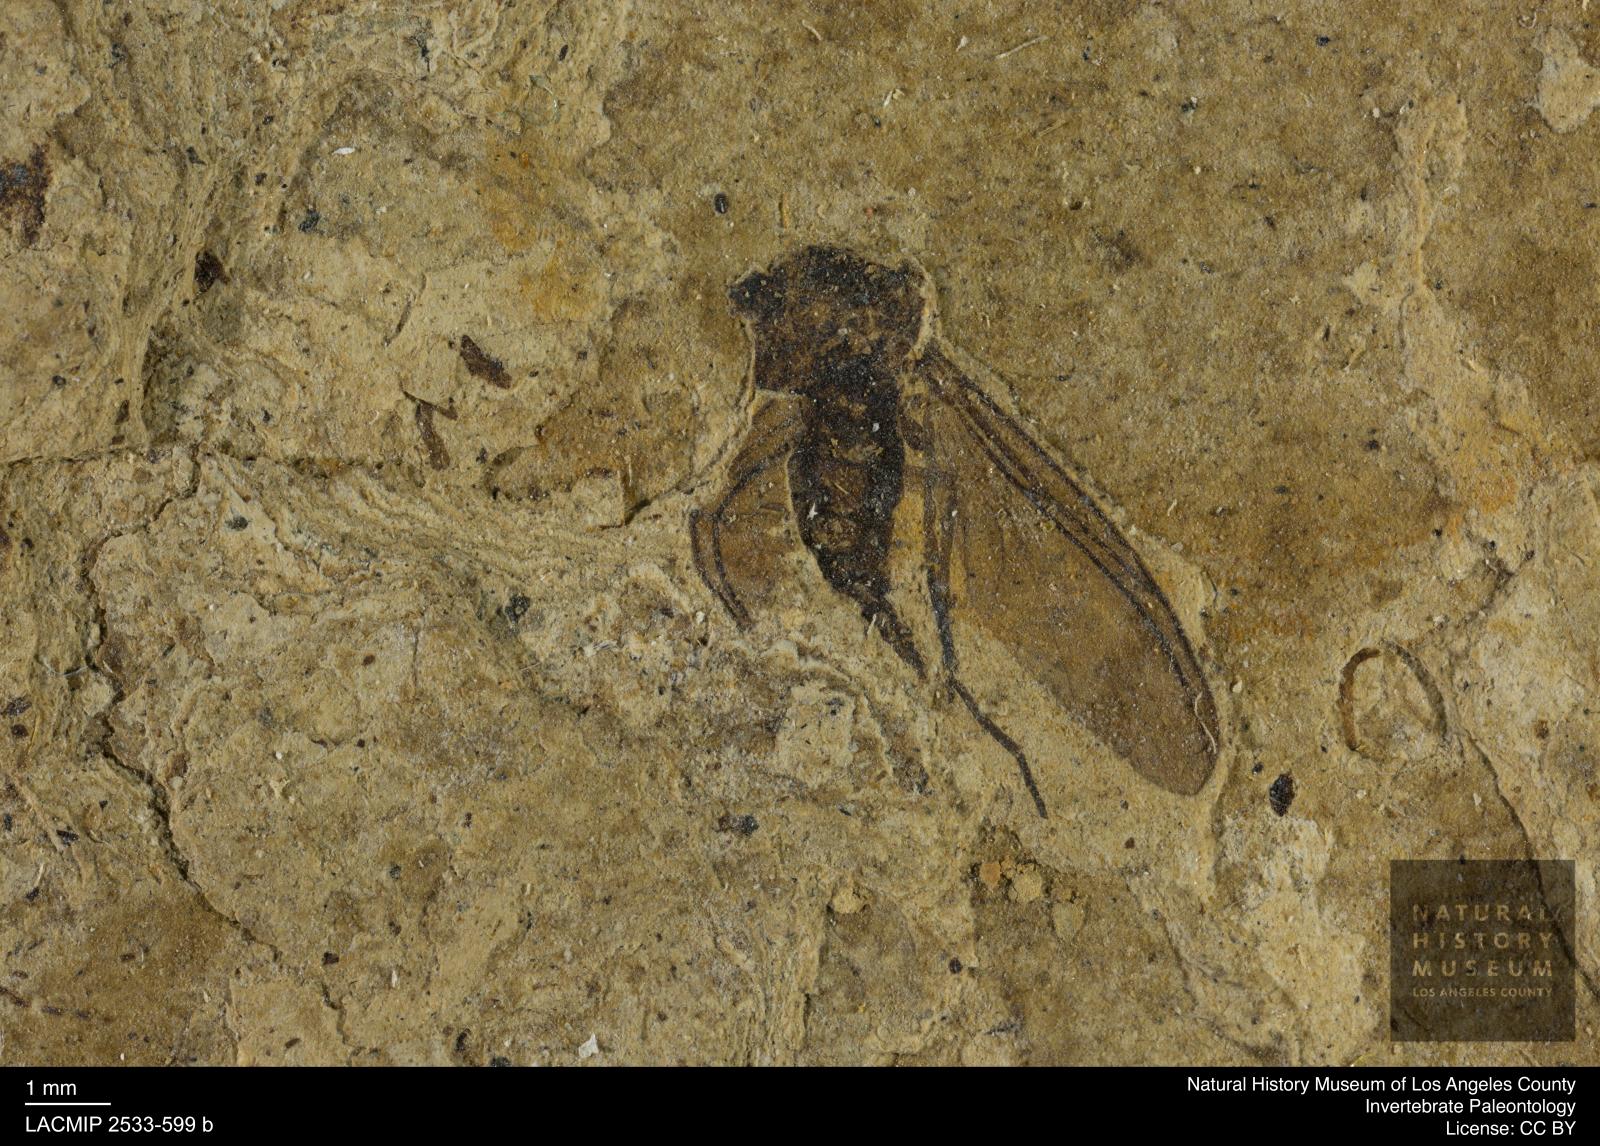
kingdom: Animalia
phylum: Arthropoda
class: Insecta
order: Diptera
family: Sciaridae
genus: Sciara
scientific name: Sciara pelidua
